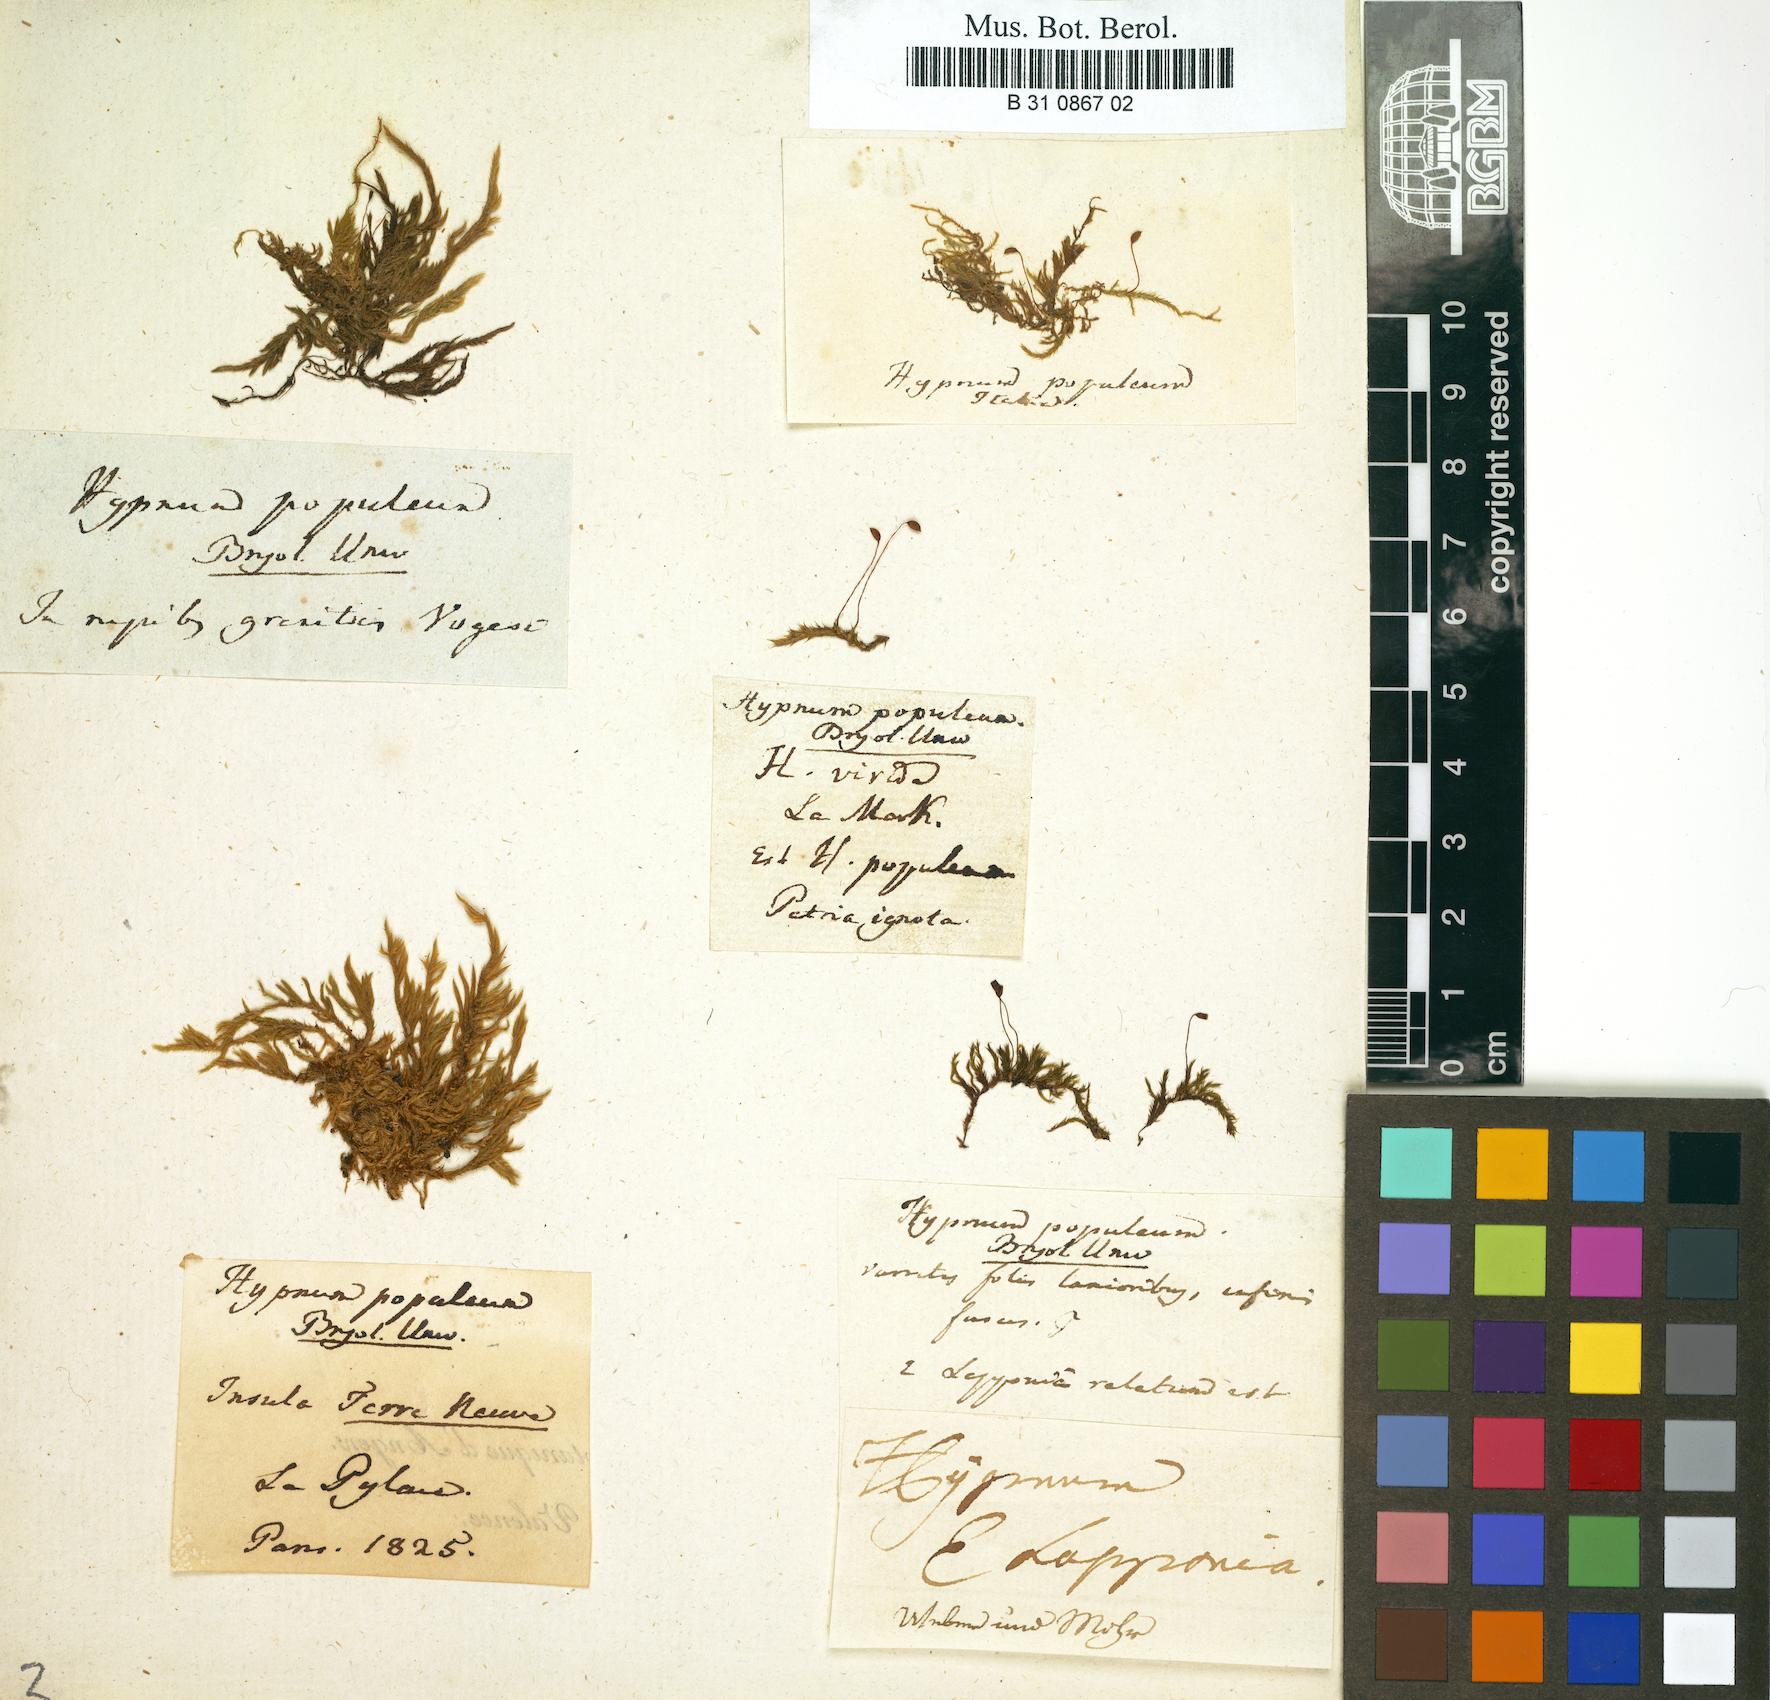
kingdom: Plantae
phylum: Bryophyta
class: Bryopsida
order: Hypnales
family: Brachytheciaceae
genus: Sciuro-hypnum
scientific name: Sciuro-hypnum populeum
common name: Matted feather-moss
